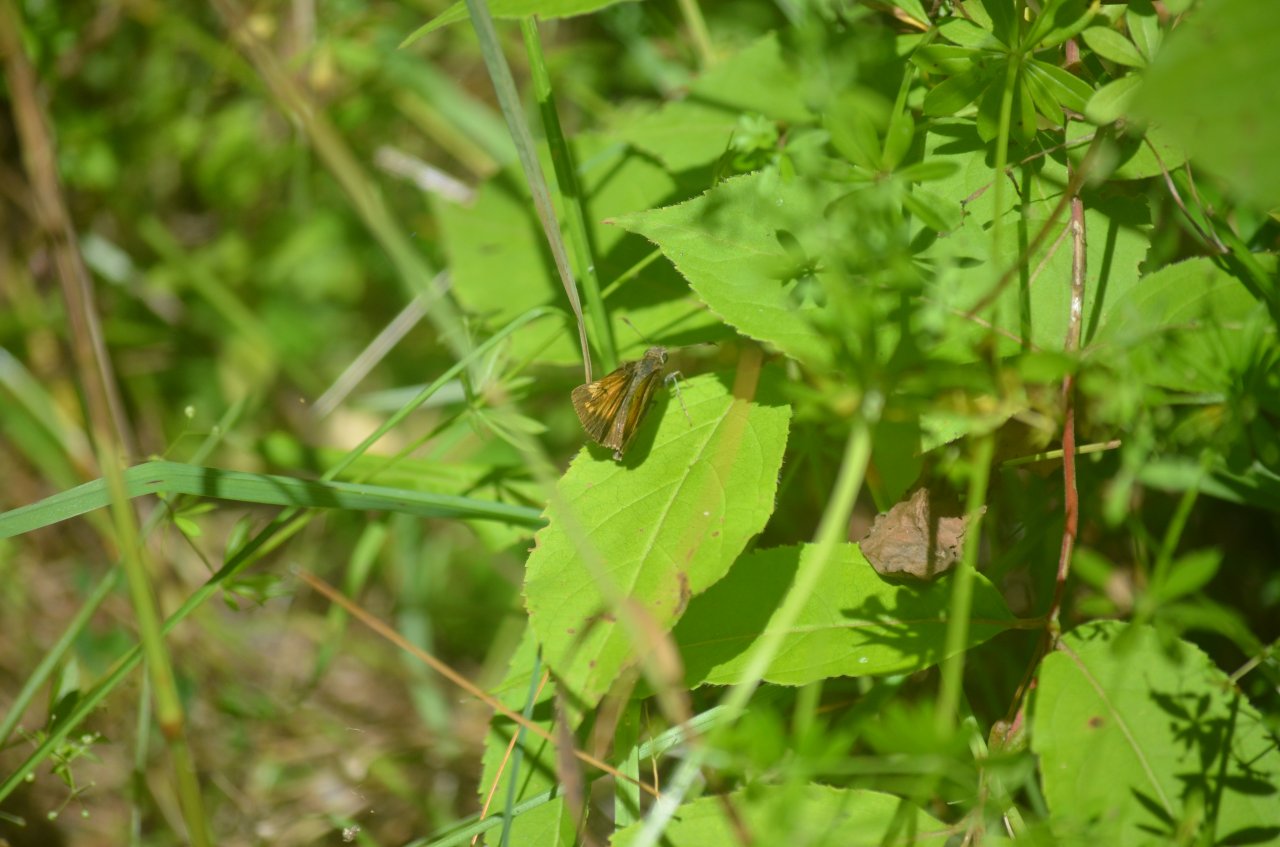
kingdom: Animalia
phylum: Arthropoda
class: Insecta
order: Lepidoptera
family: Hesperiidae
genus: Lon
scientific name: Lon hobomok
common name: Hobomok Skipper
